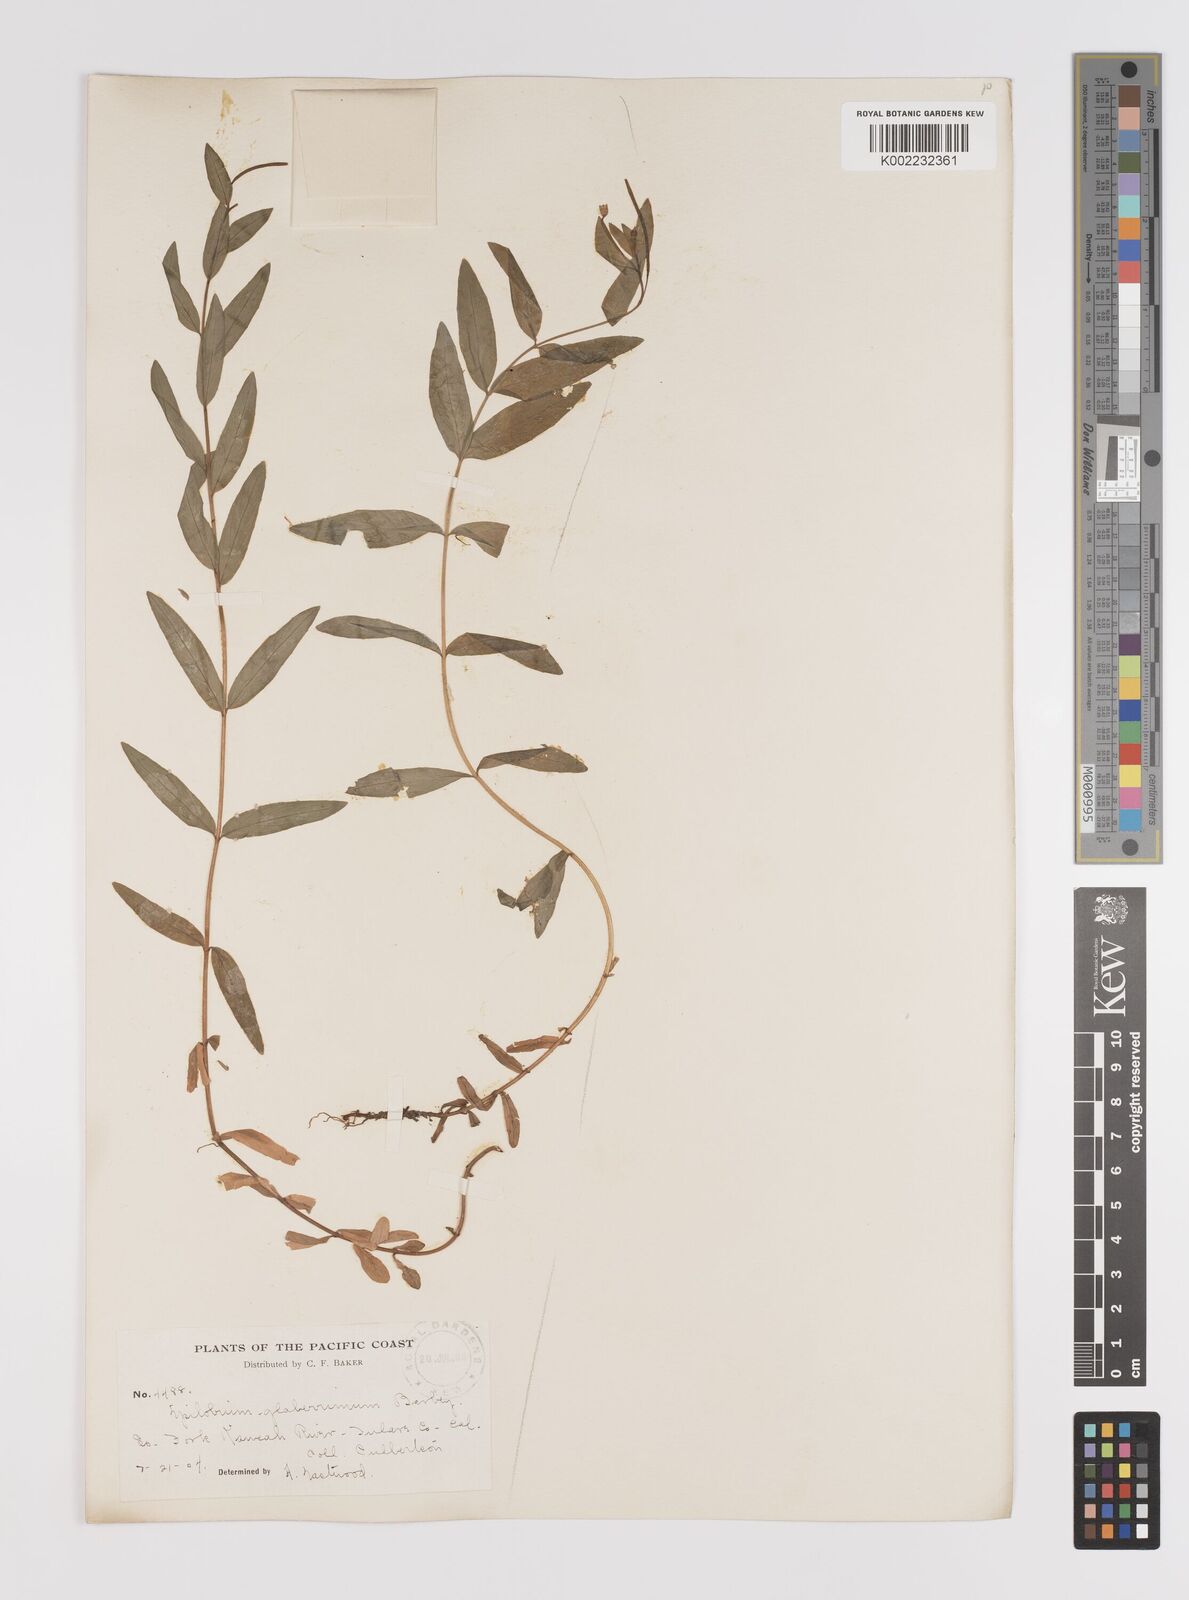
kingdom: Plantae
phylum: Tracheophyta
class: Magnoliopsida
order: Myrtales
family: Onagraceae
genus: Epilobium
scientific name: Epilobium glaberrimum
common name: Glaucous willowherb
